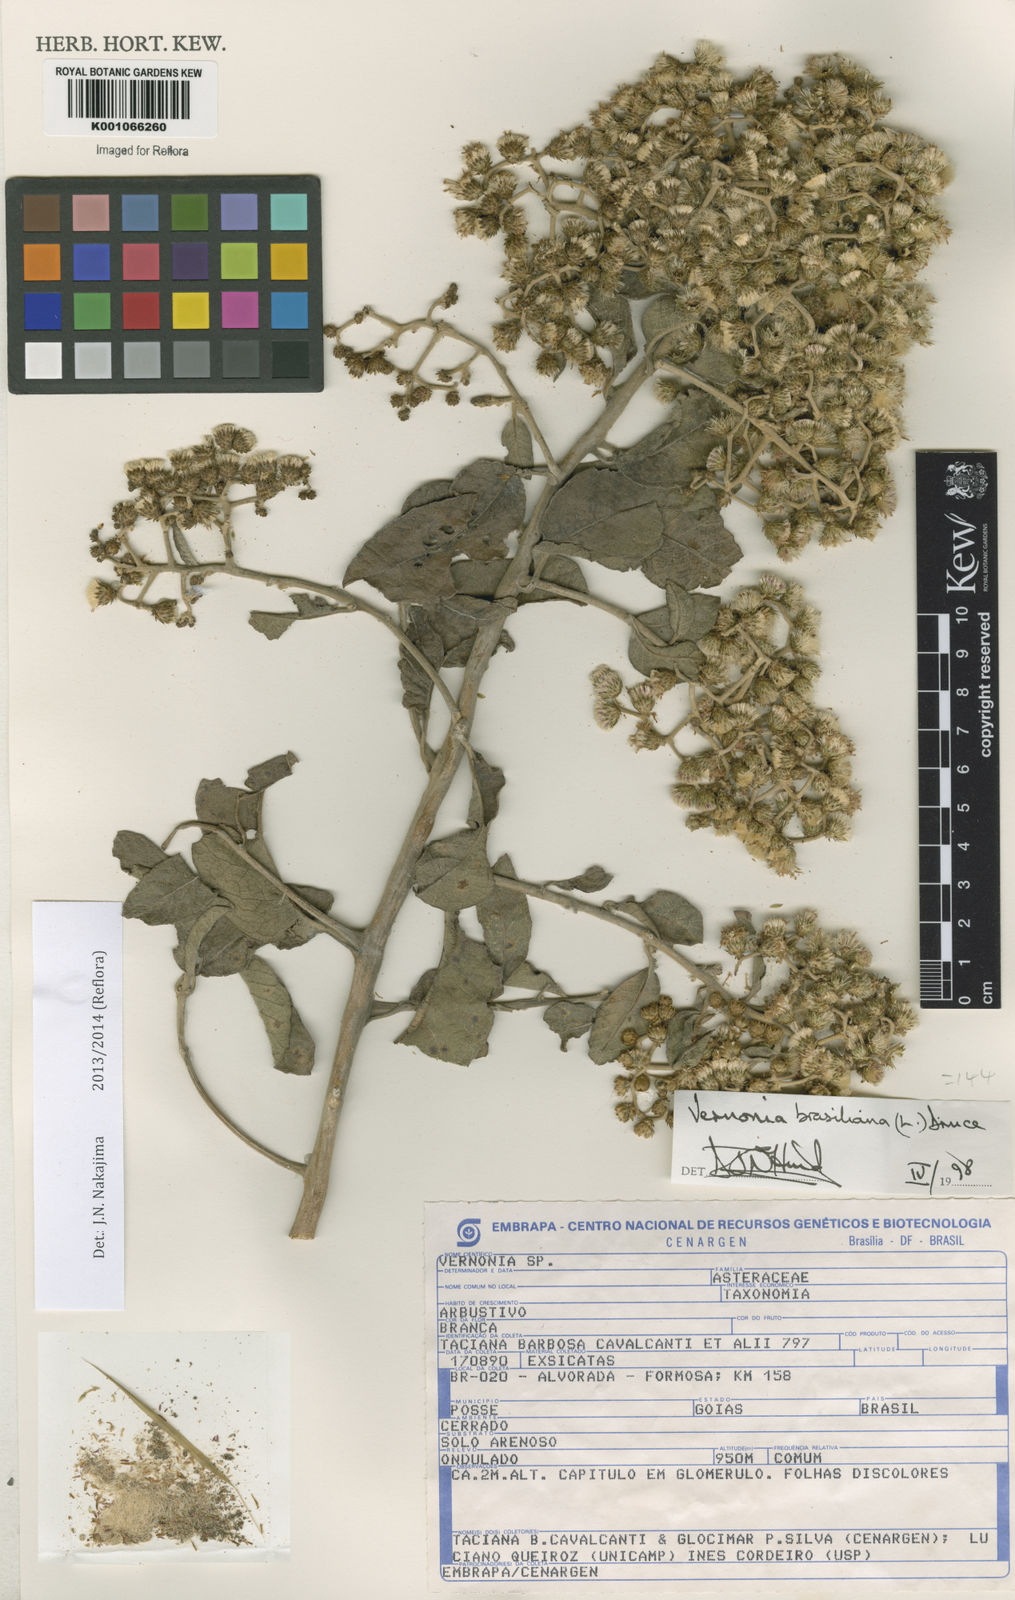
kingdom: Plantae
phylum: Tracheophyta
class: Magnoliopsida
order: Asterales
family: Asteraceae
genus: Vernonanthura
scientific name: Vernonanthura ferruginea
